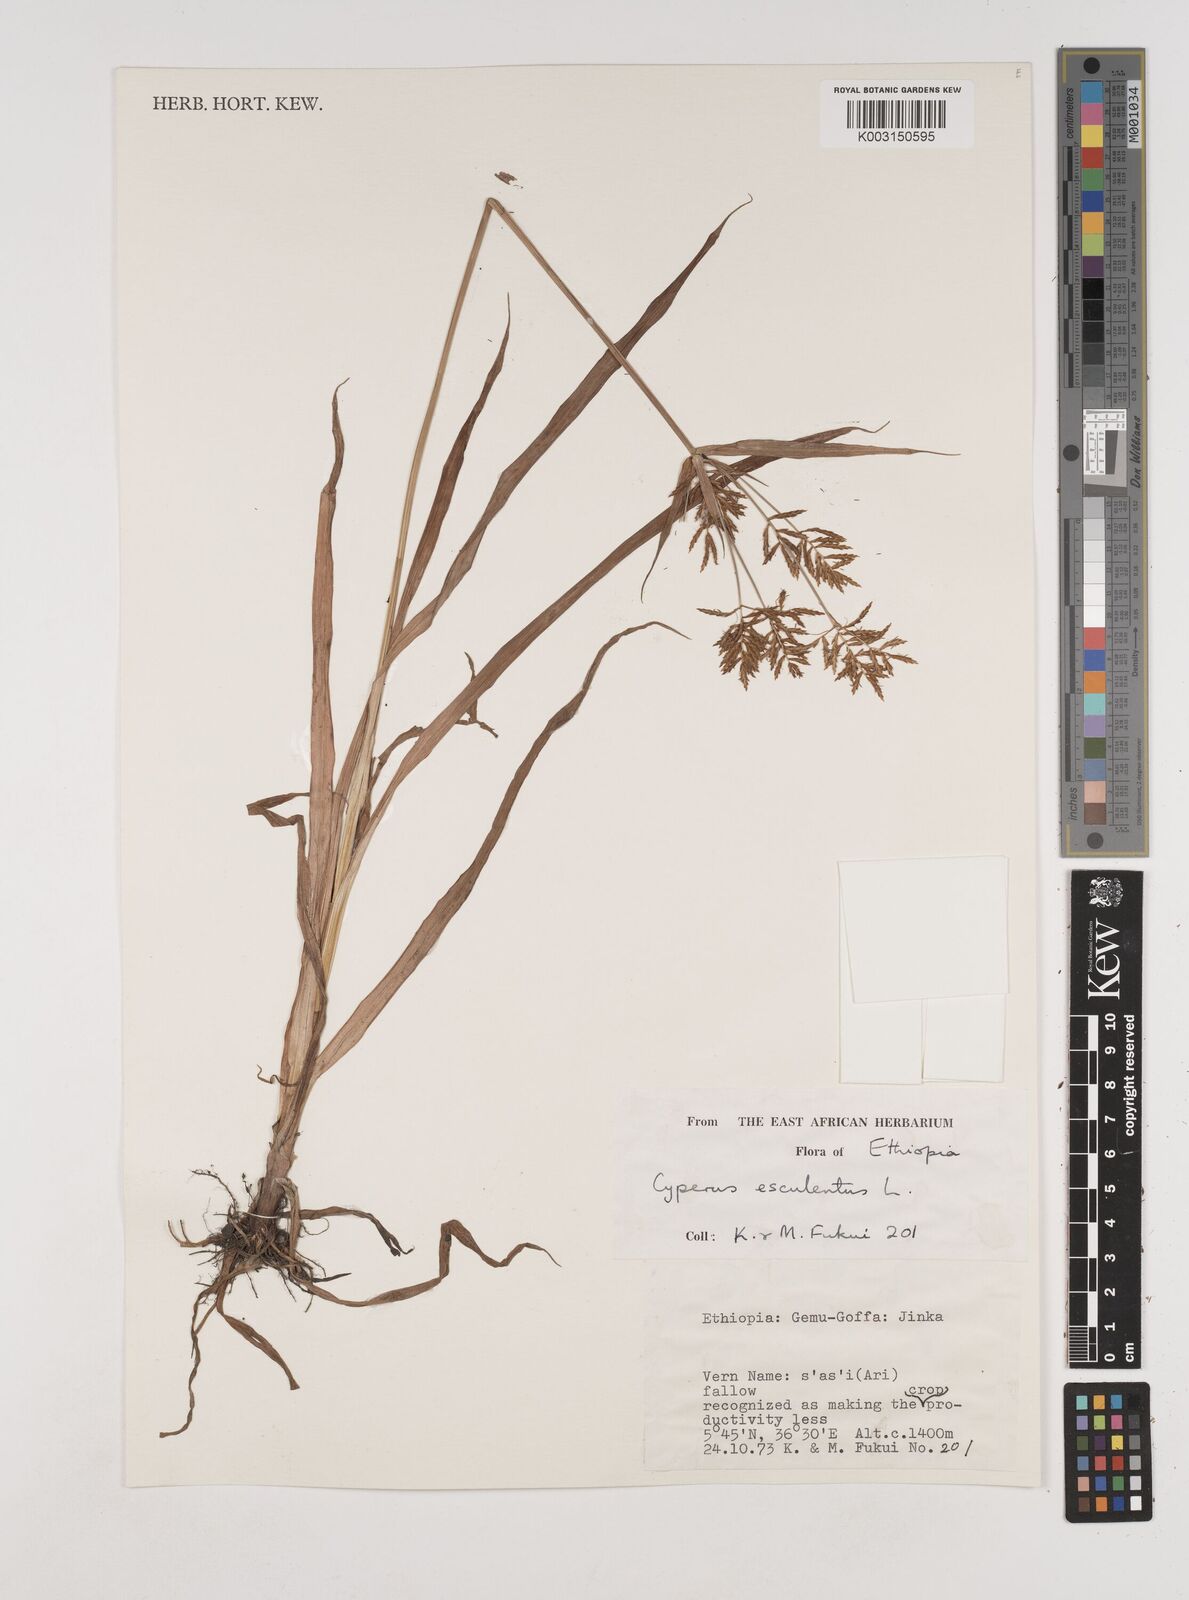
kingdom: Plantae
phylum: Tracheophyta
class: Liliopsida
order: Poales
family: Cyperaceae
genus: Cyperus
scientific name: Cyperus esculentus
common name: Yellow nutsedge
